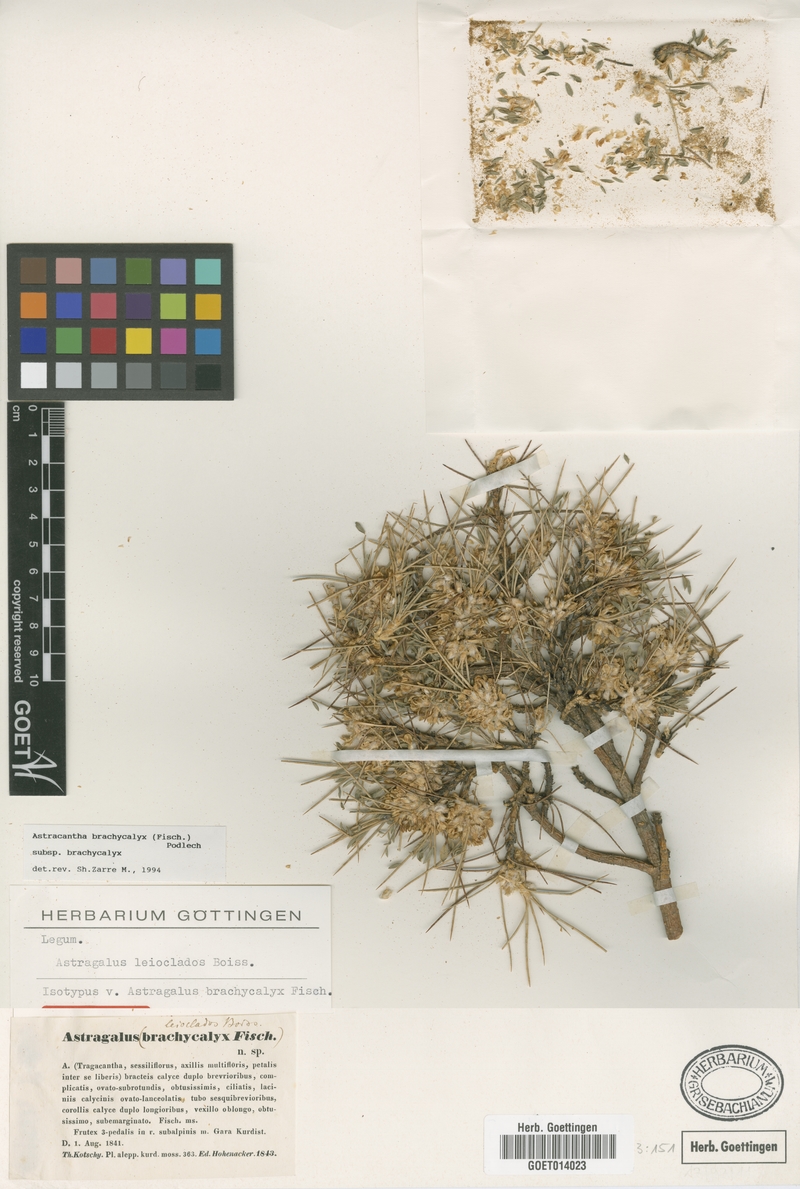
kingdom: Plantae
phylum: Tracheophyta
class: Magnoliopsida
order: Fabales
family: Fabaceae
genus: Astragalus
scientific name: Astragalus brachycalyx
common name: Persian manna
